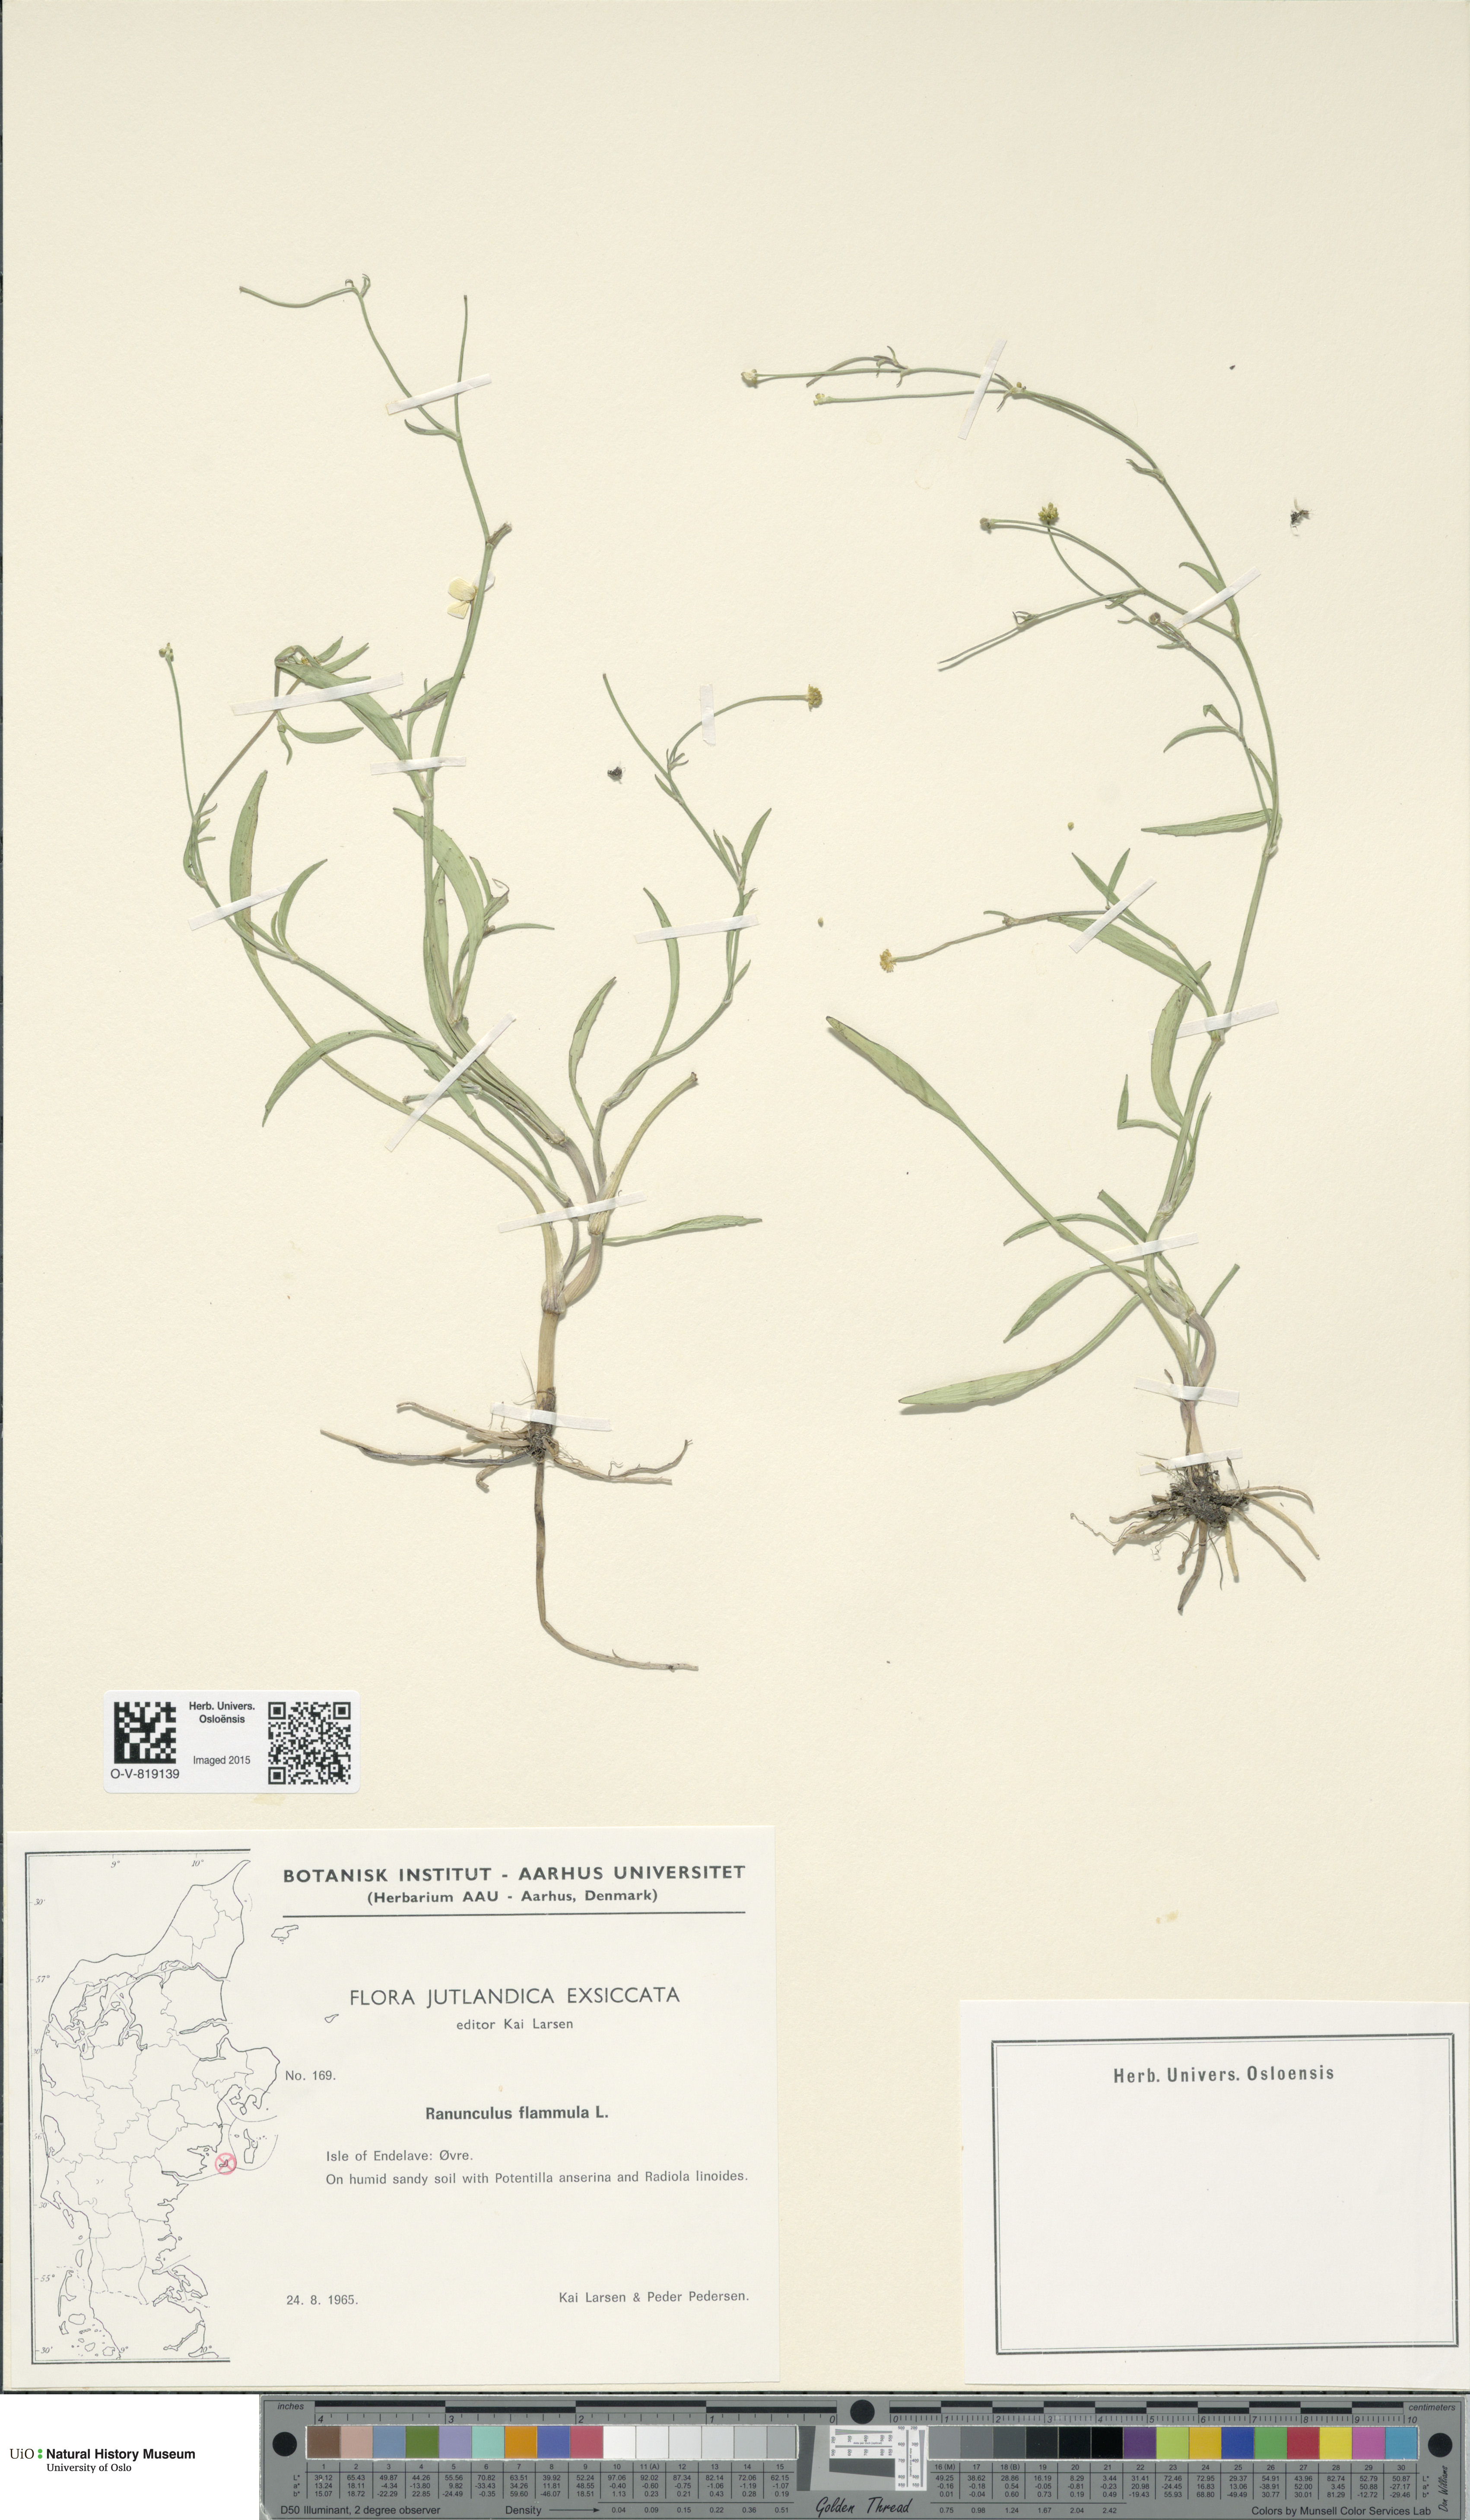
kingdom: Plantae
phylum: Tracheophyta
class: Magnoliopsida
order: Ranunculales
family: Ranunculaceae
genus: Ranunculus
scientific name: Ranunculus flammula
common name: Lesser spearwort
